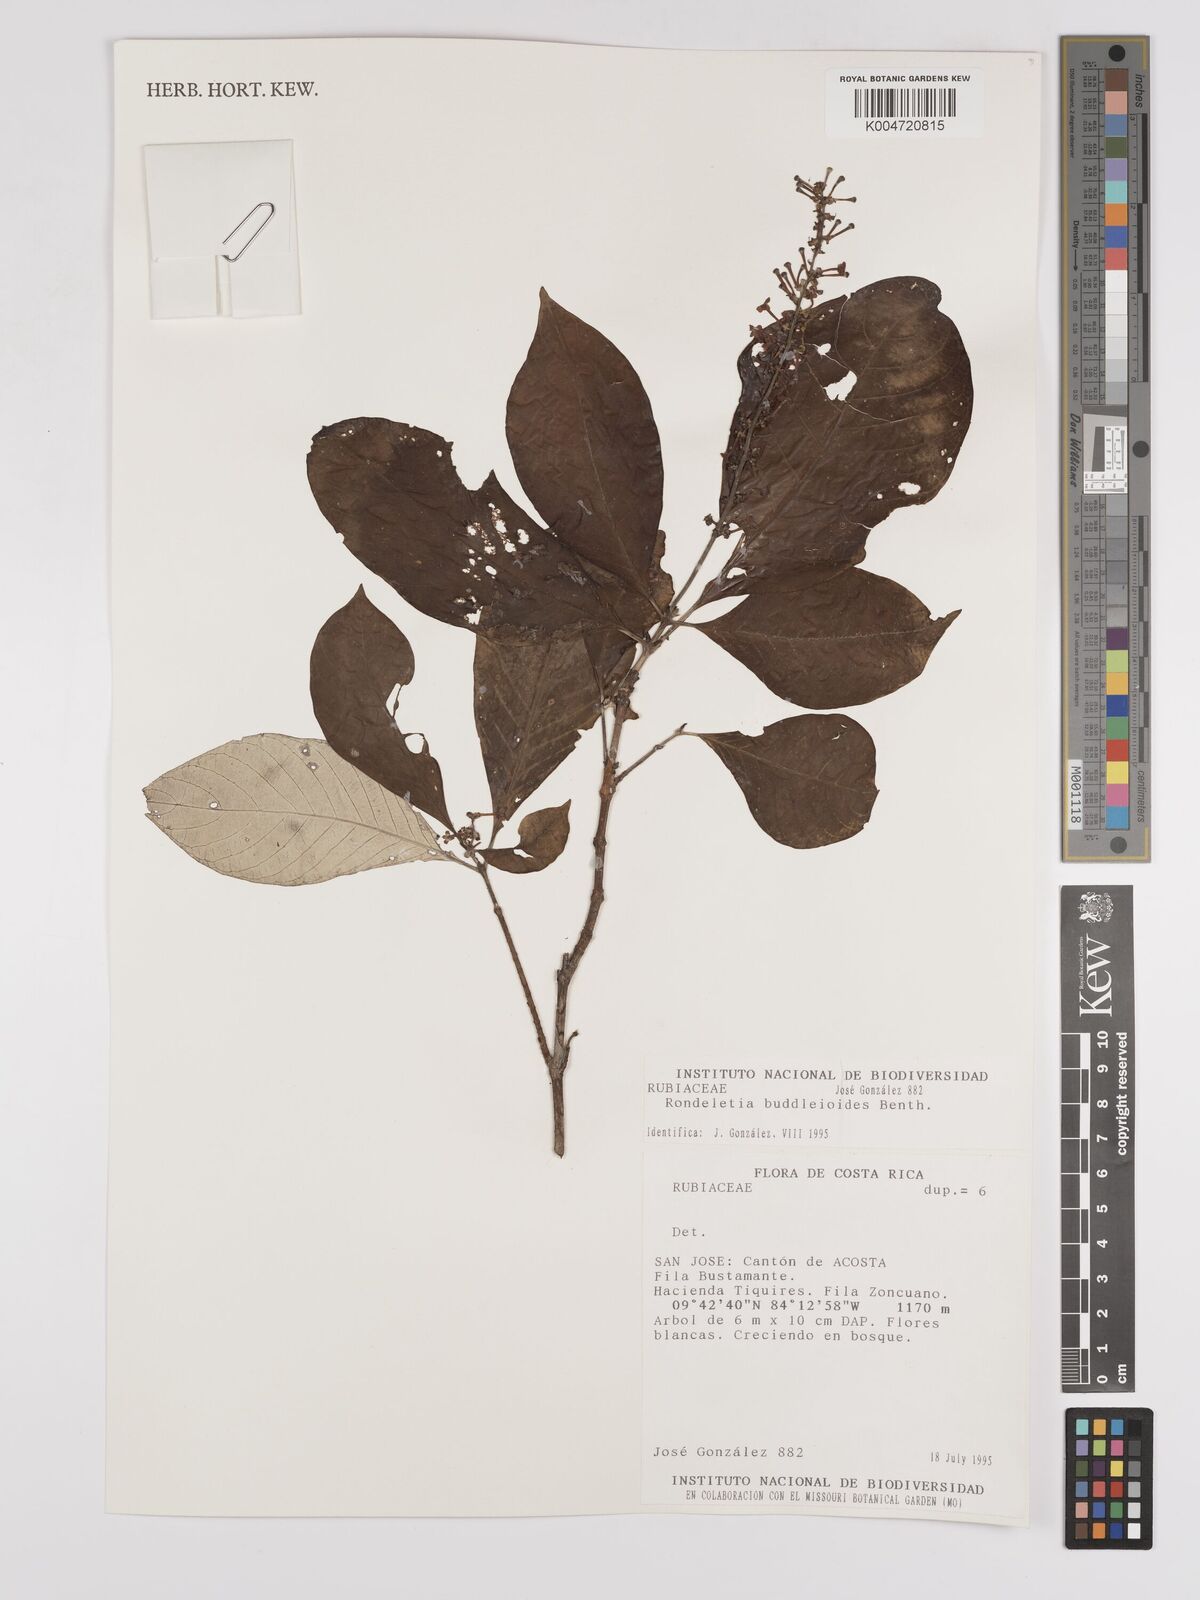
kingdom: Plantae
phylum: Tracheophyta
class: Magnoliopsida
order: Gentianales
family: Rubiaceae
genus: Arachnothryx
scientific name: Arachnothryx buddleioides
